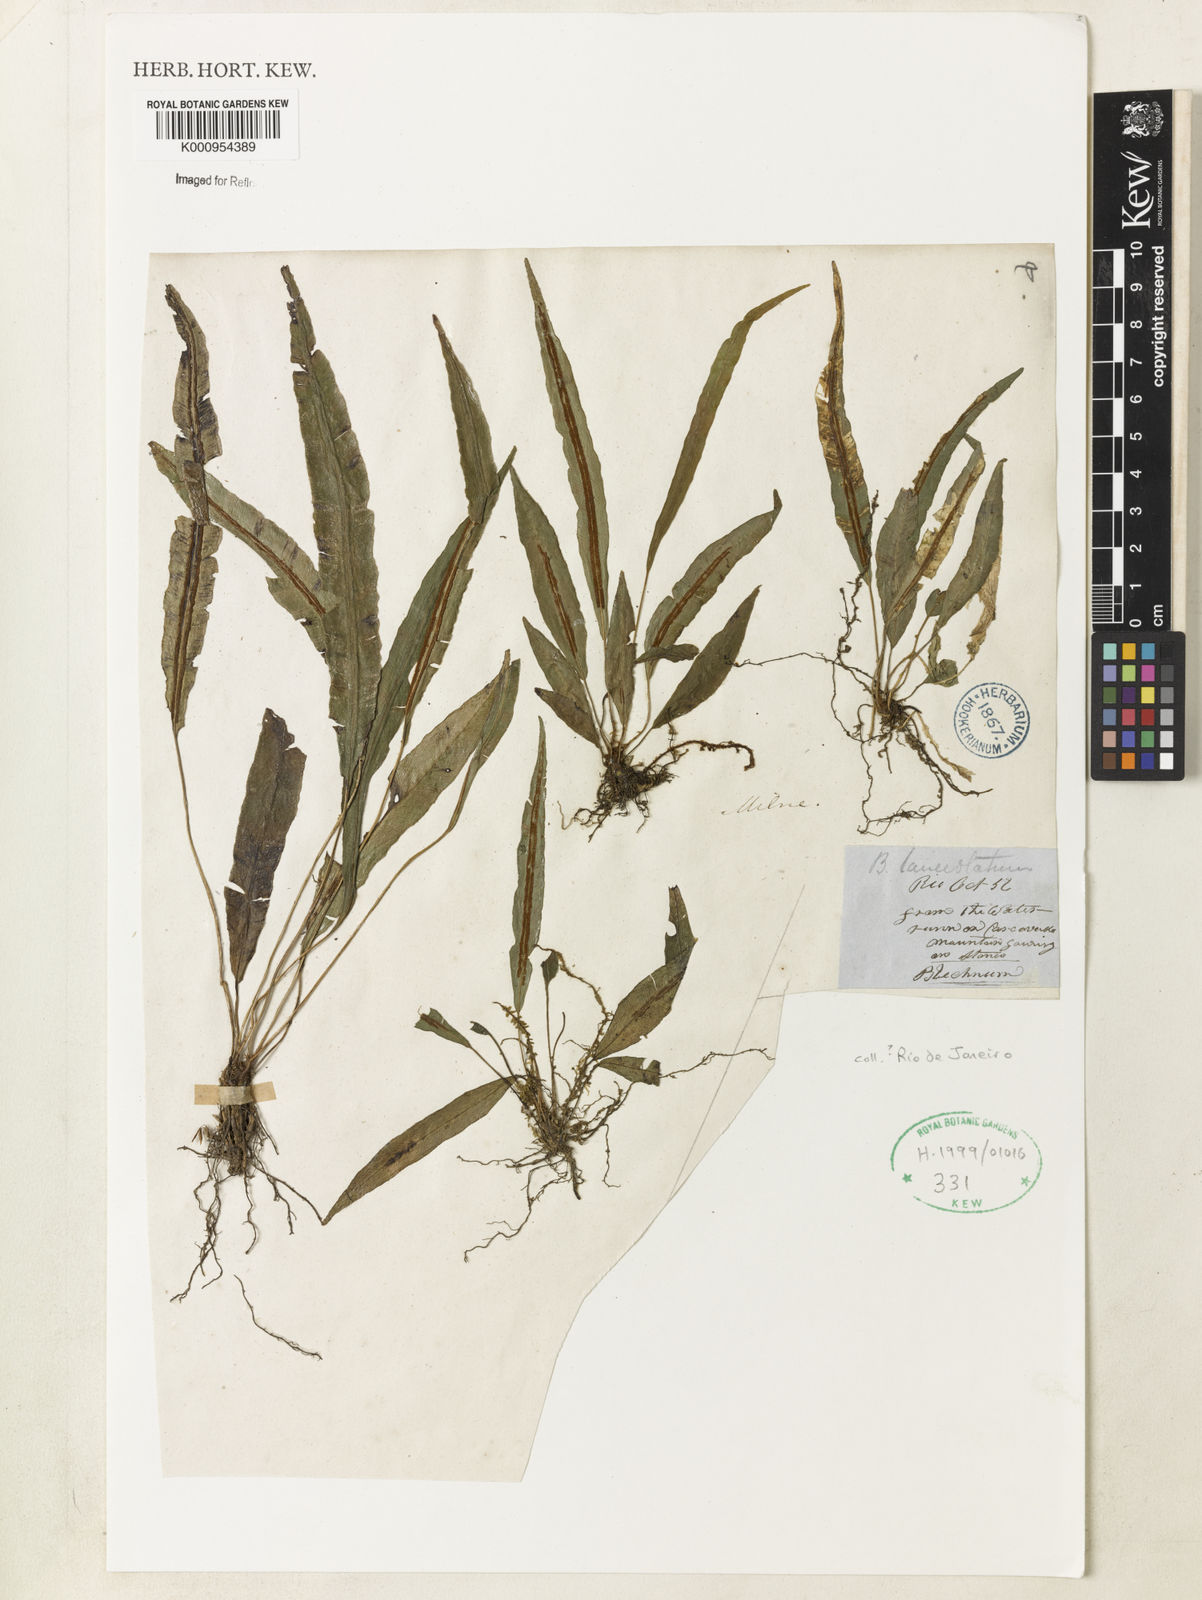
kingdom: Plantae
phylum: Tracheophyta
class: Polypodiopsida
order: Polypodiales
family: Blechnaceae
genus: Blechnum
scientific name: Blechnum lanceola
